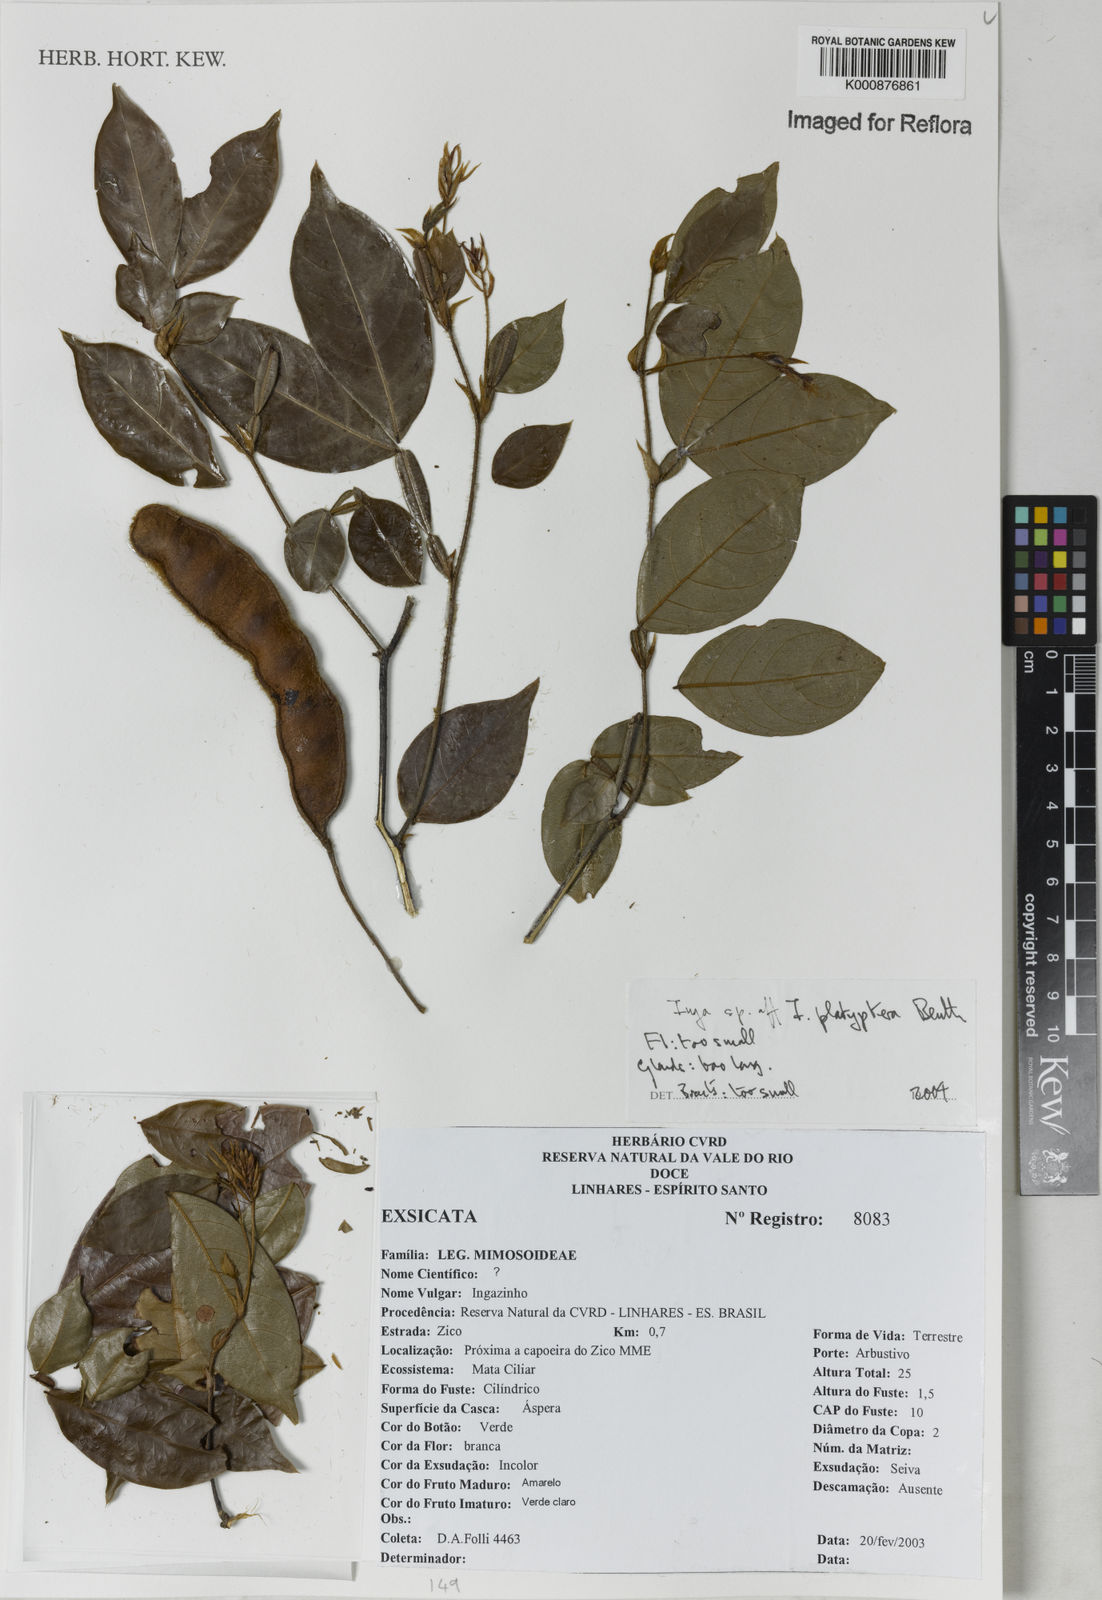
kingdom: Plantae
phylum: Tracheophyta
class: Magnoliopsida
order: Fabales
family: Fabaceae
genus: Inga
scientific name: Inga platyptera
